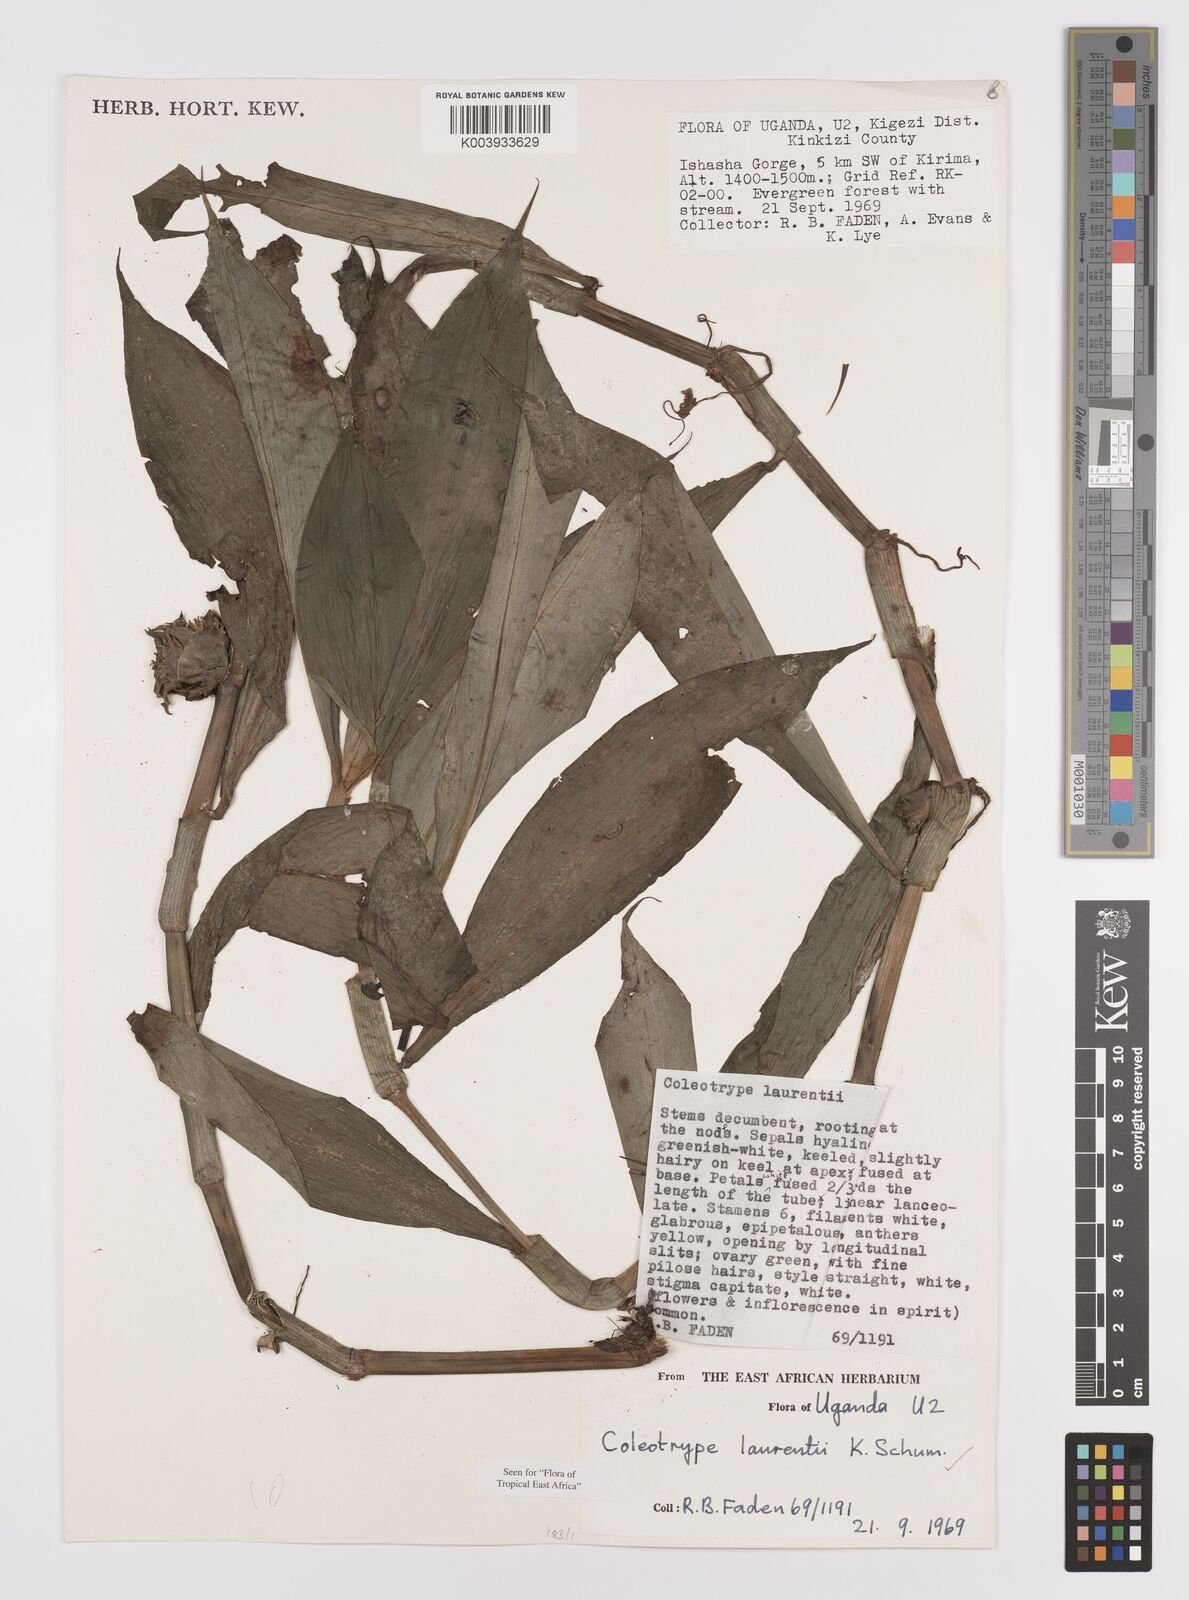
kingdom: Plantae
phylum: Tracheophyta
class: Liliopsida
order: Commelinales
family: Commelinaceae
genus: Coleotrype
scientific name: Coleotrype laurentii
